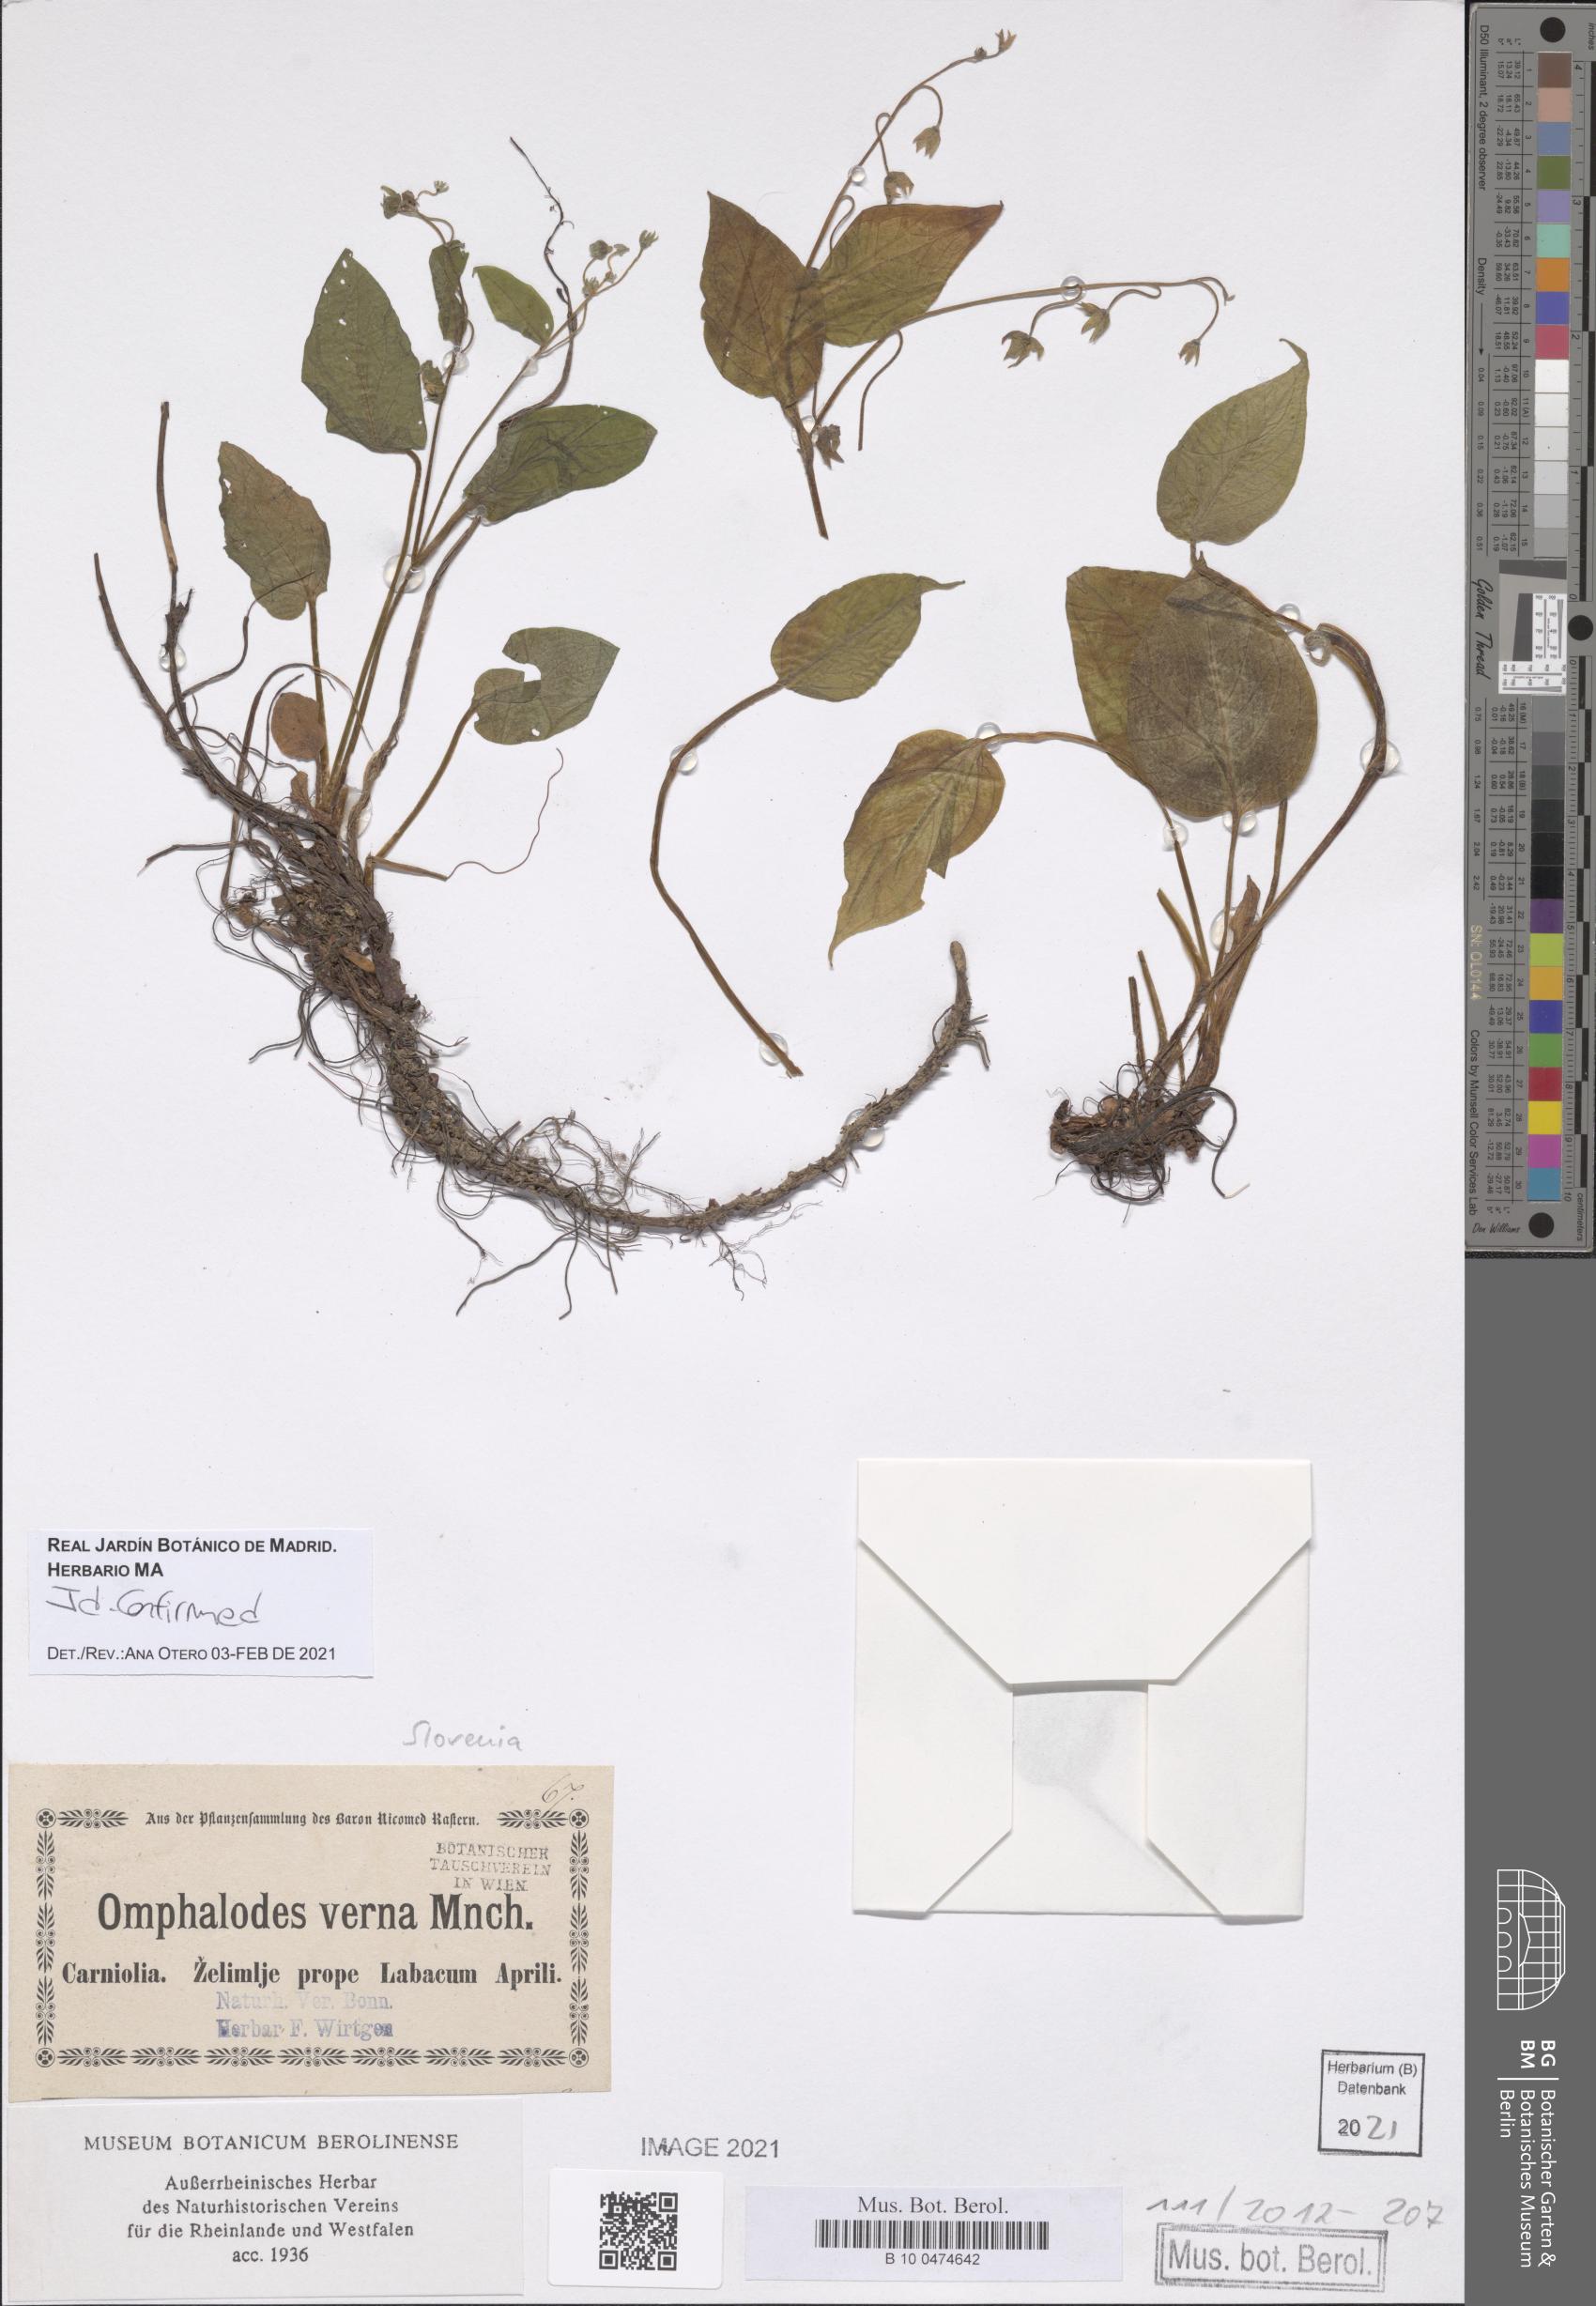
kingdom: Plantae
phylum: Tracheophyta
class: Magnoliopsida
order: Boraginales
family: Boraginaceae
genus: Omphalodes
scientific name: Omphalodes verna
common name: Blue-eyed-mary
